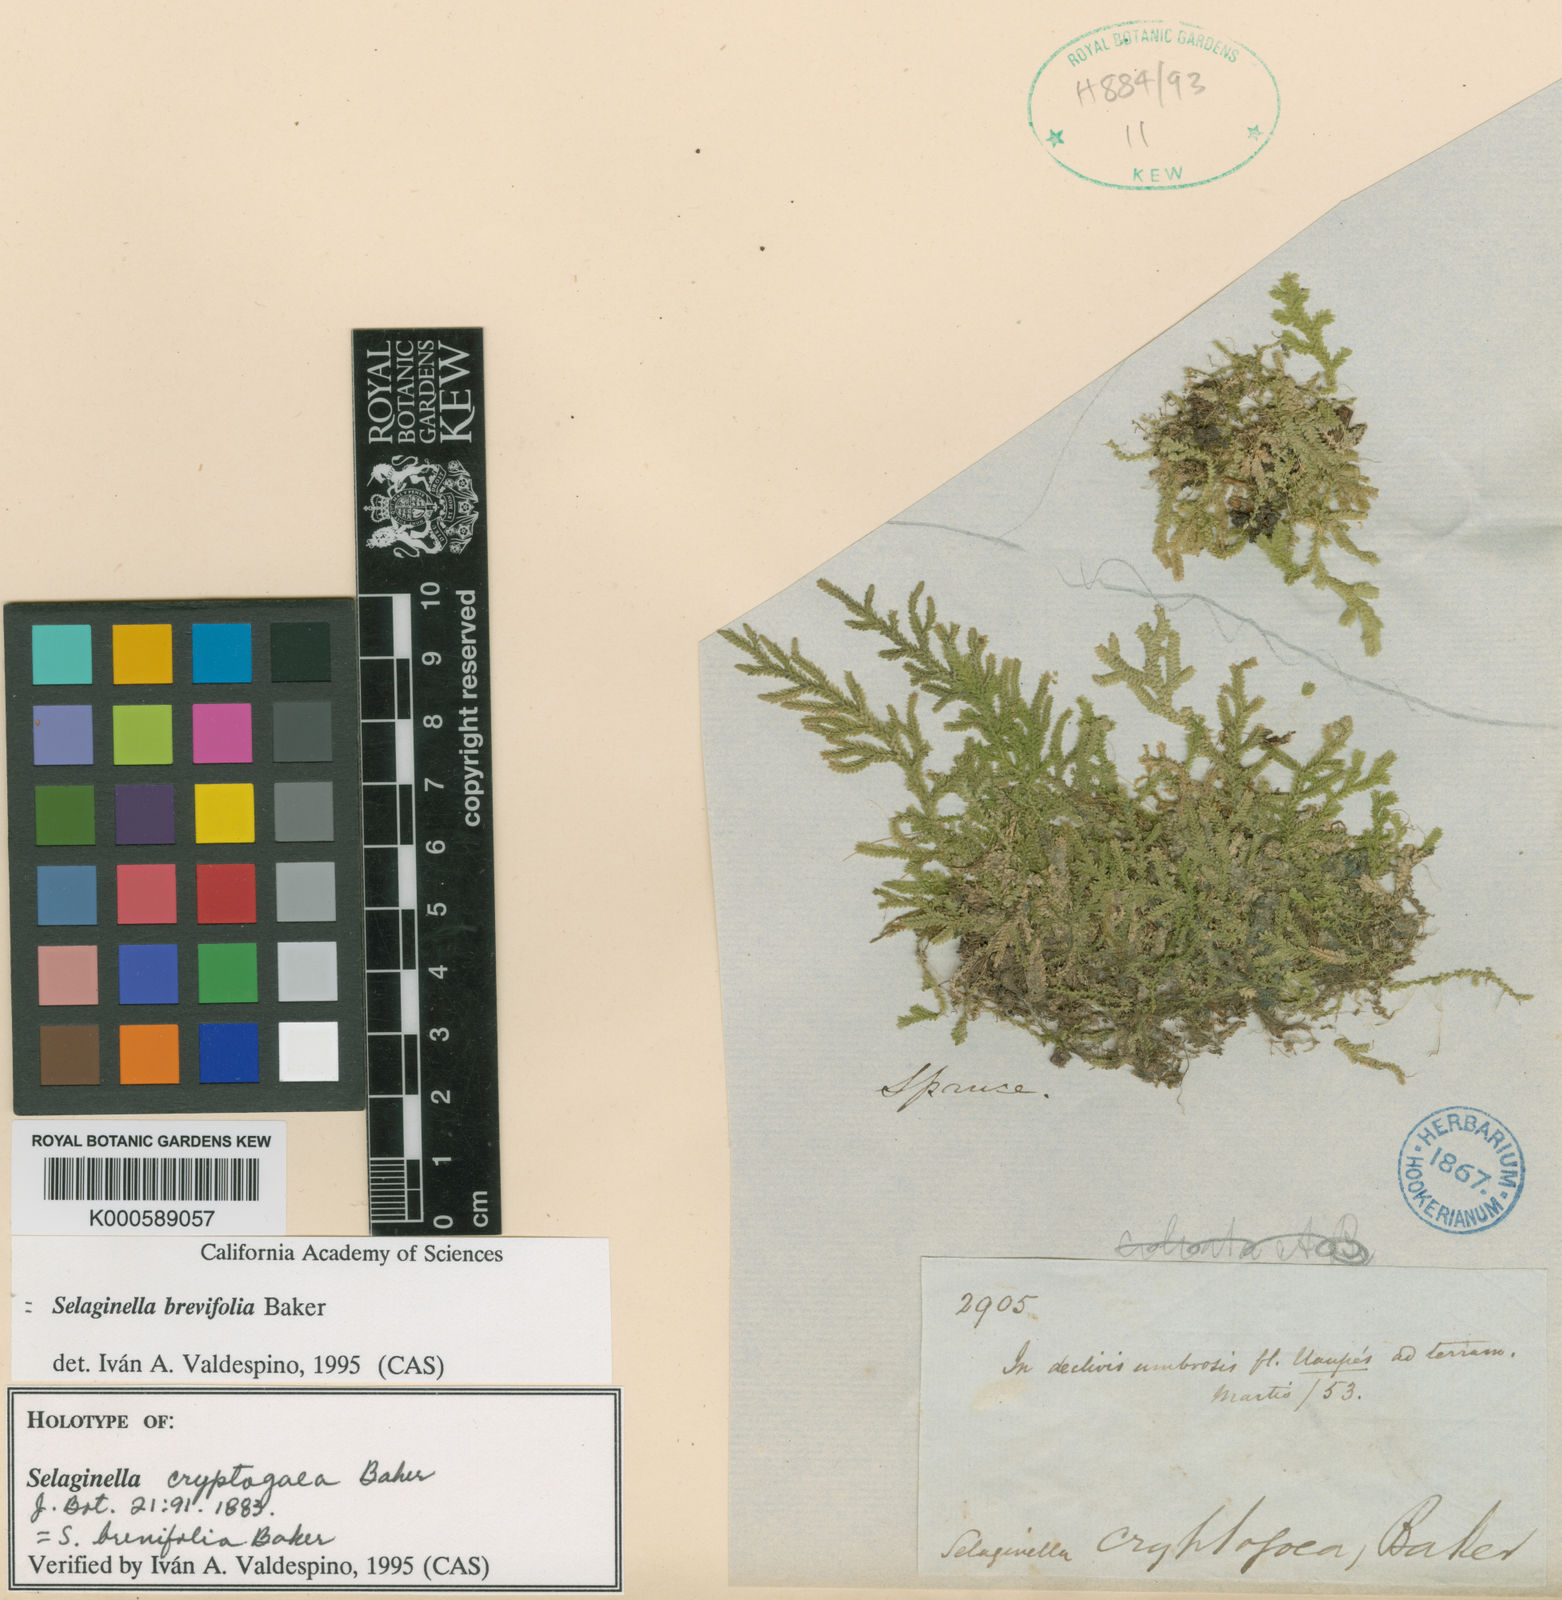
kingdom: Plantae
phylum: Tracheophyta
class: Lycopodiopsida
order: Selaginellales
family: Selaginellaceae
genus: Selaginella
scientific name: Selaginella brevifolia
